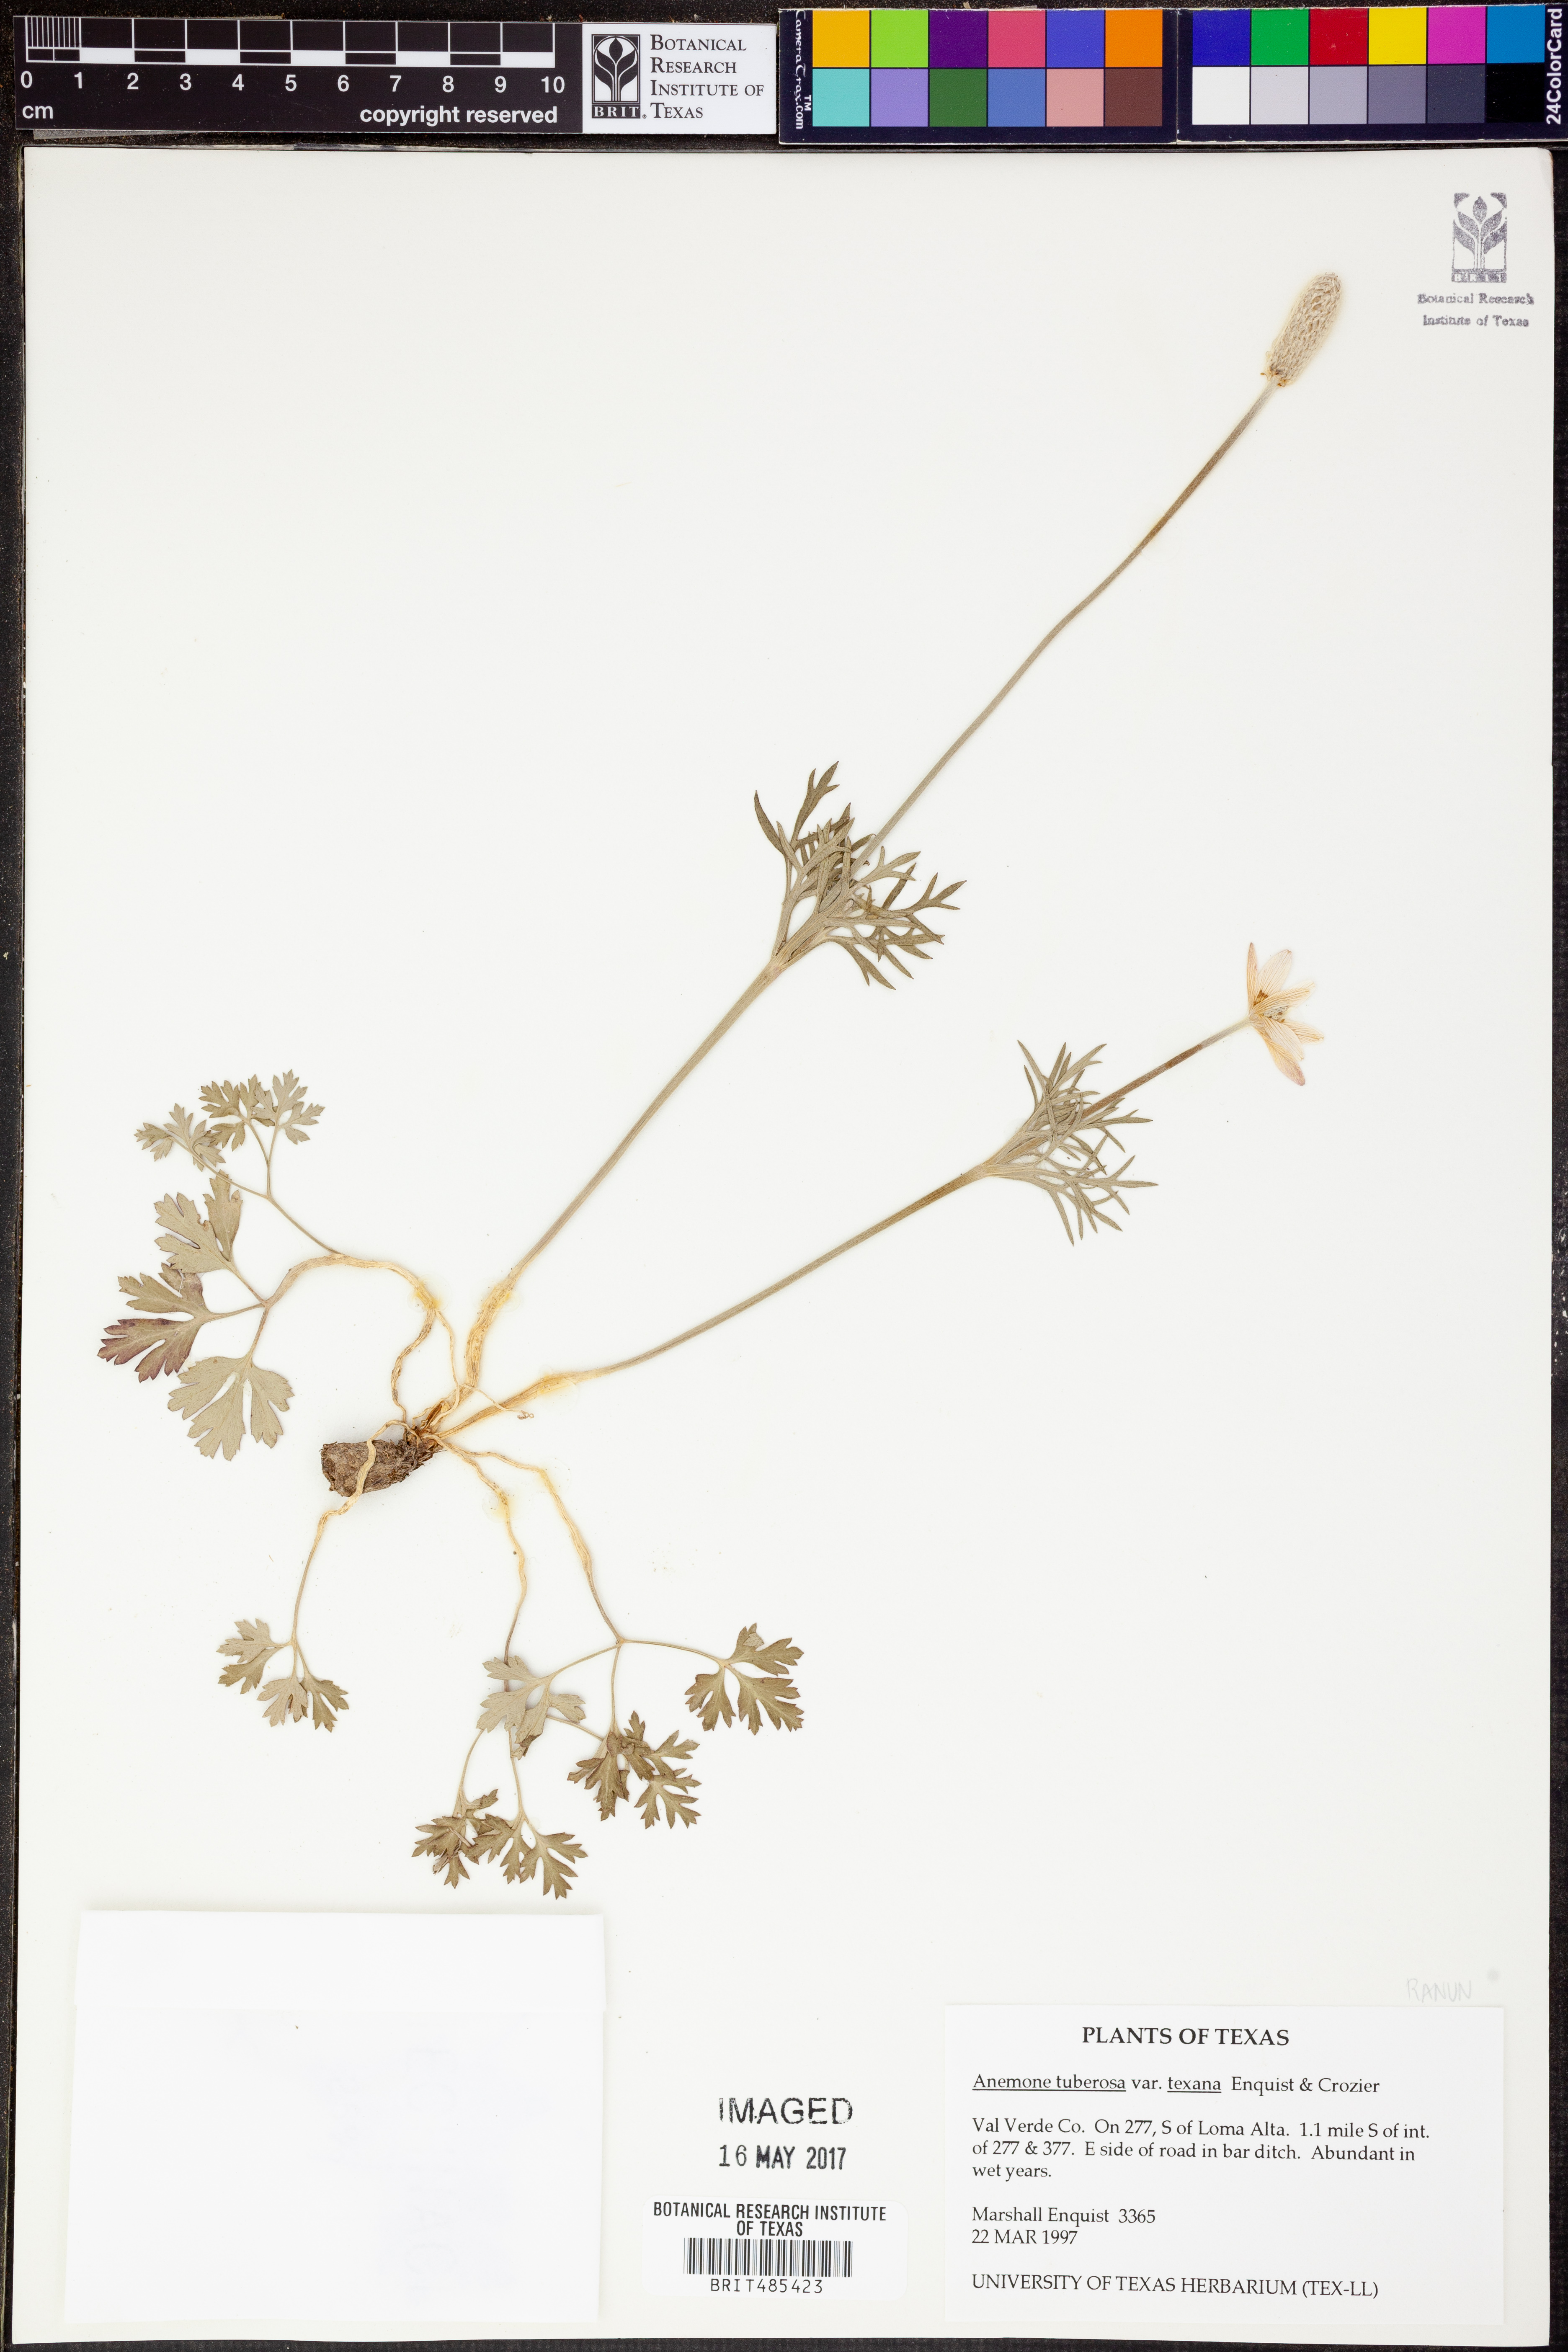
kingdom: Plantae
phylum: Tracheophyta
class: Magnoliopsida
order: Ranunculales
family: Ranunculaceae
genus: Anemone
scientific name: Anemone tuberosa
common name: Desert anemone
